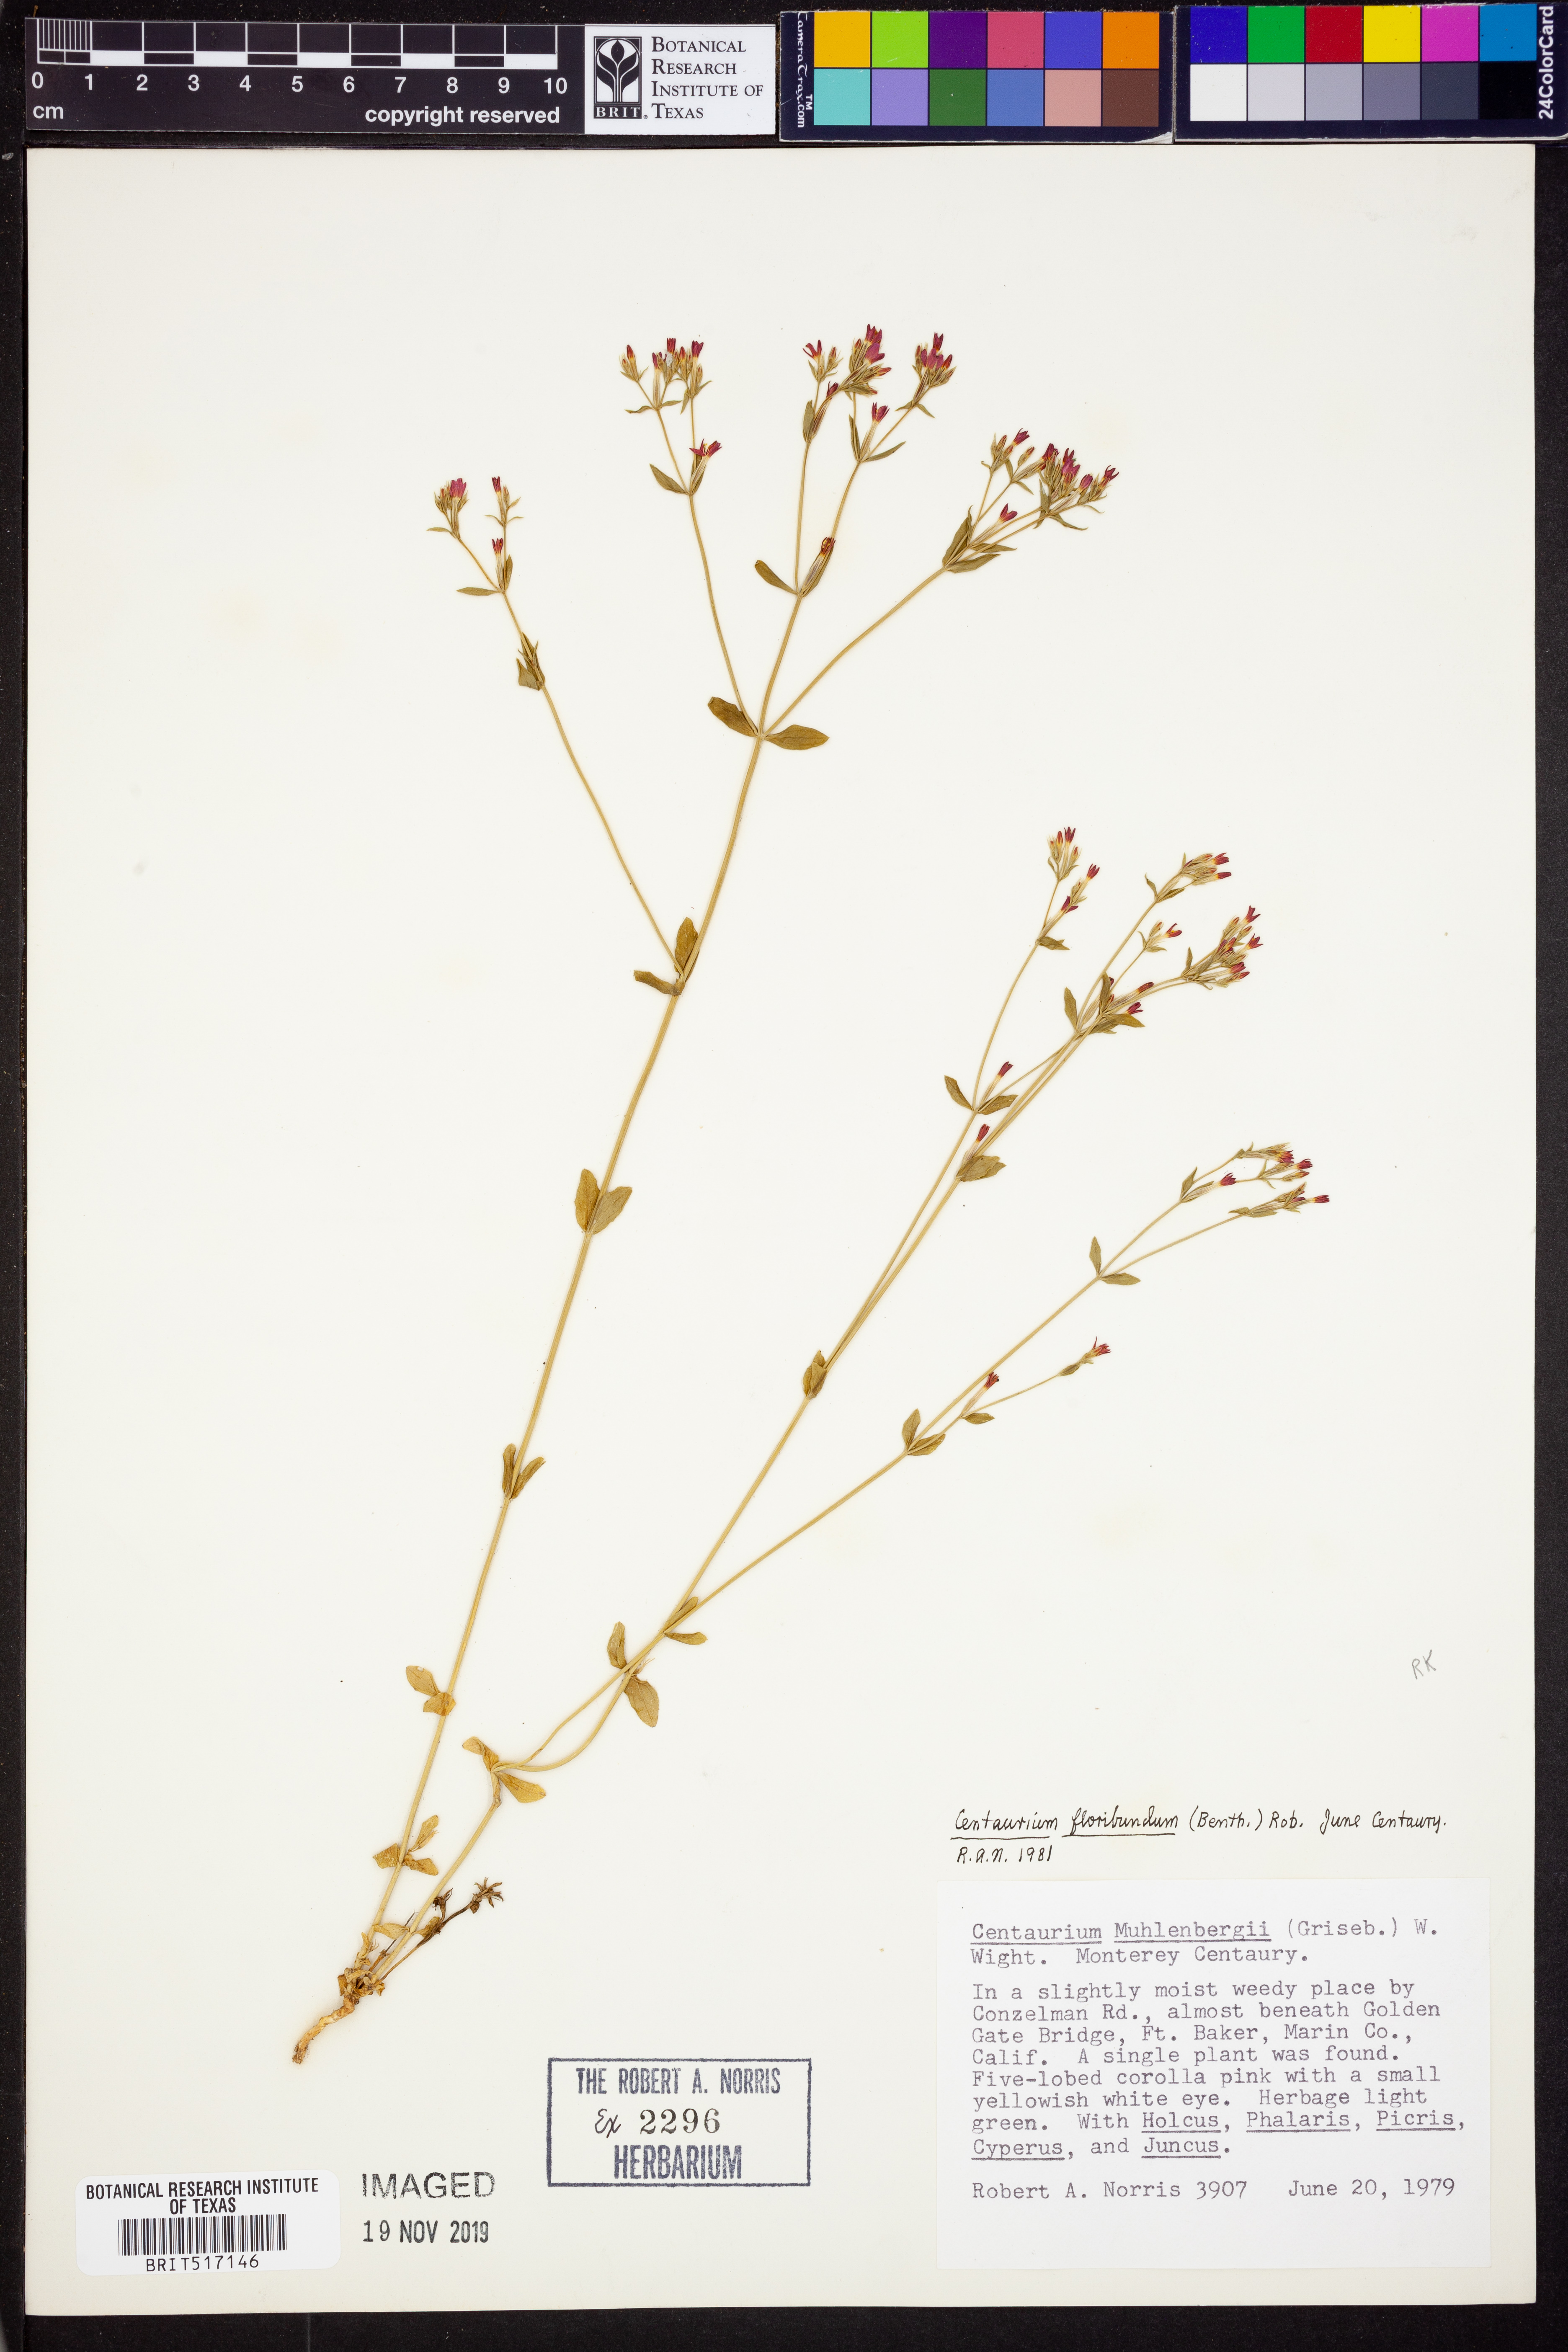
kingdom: Plantae
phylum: Tracheophyta
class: Magnoliopsida
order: Gentianales
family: Gentianaceae
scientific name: Gentianaceae
